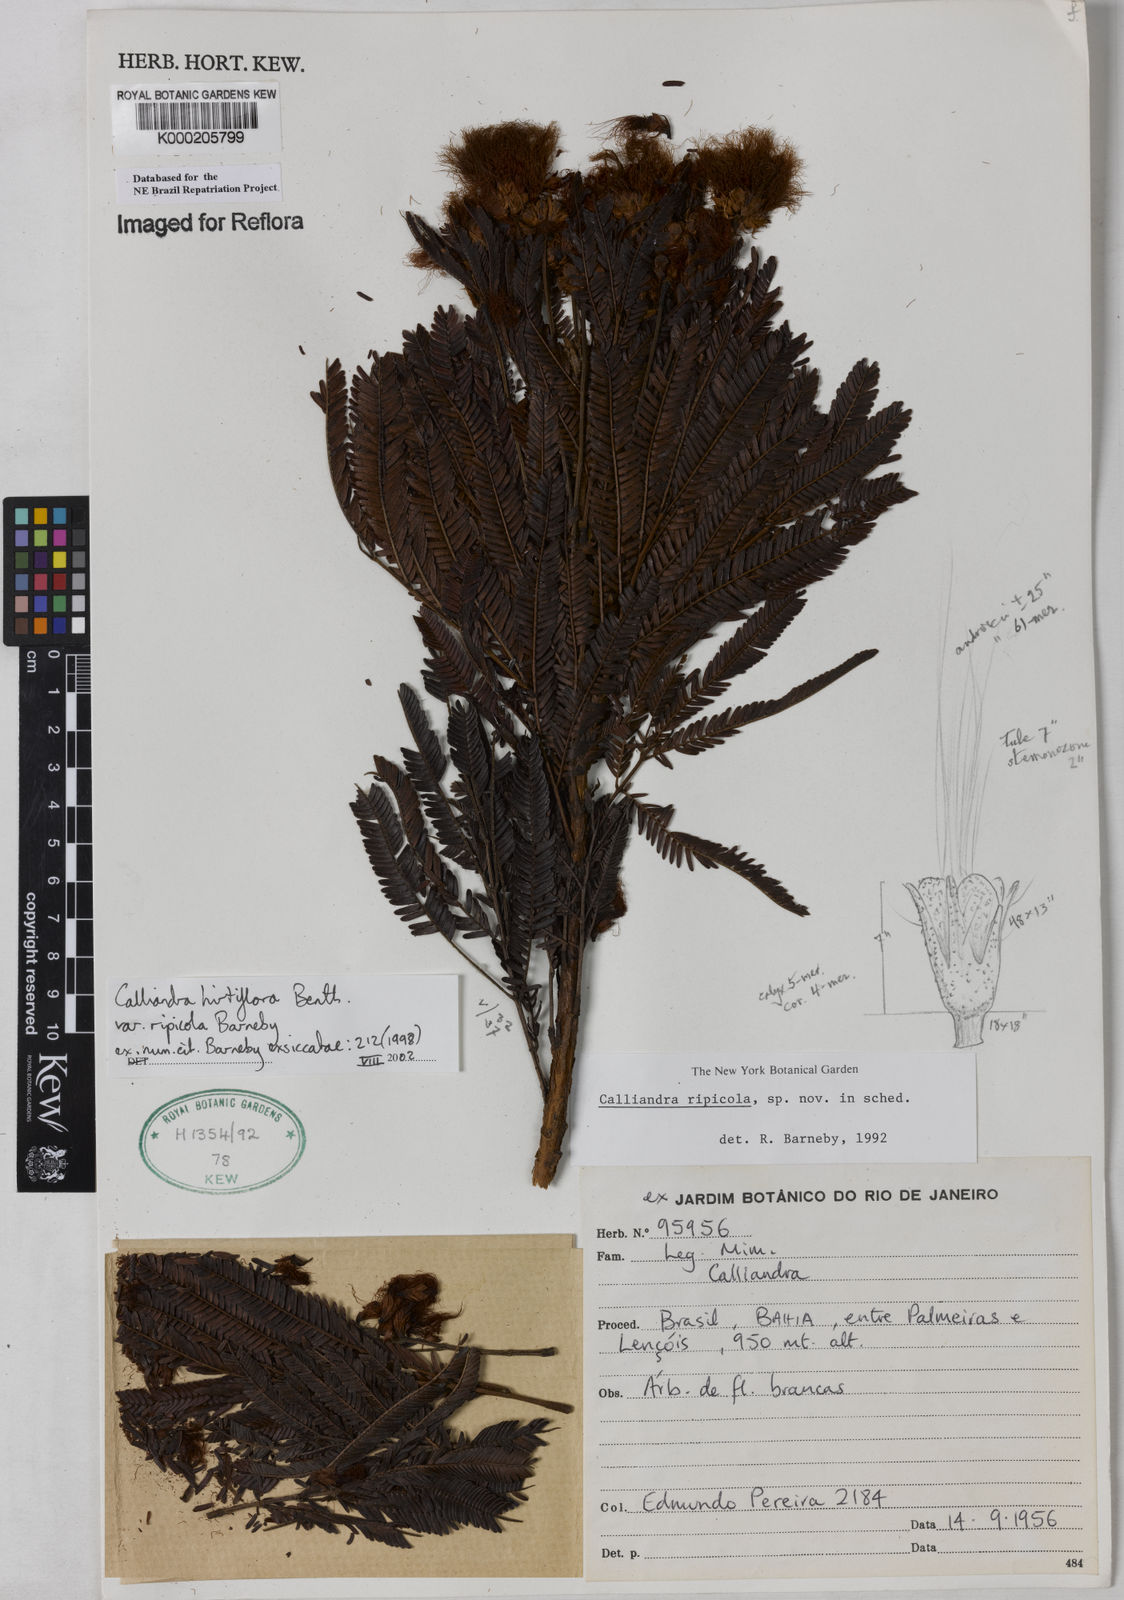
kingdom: Plantae
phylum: Tracheophyta
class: Magnoliopsida
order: Fabales
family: Fabaceae
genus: Calliandra
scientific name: Calliandra hirtiflora
